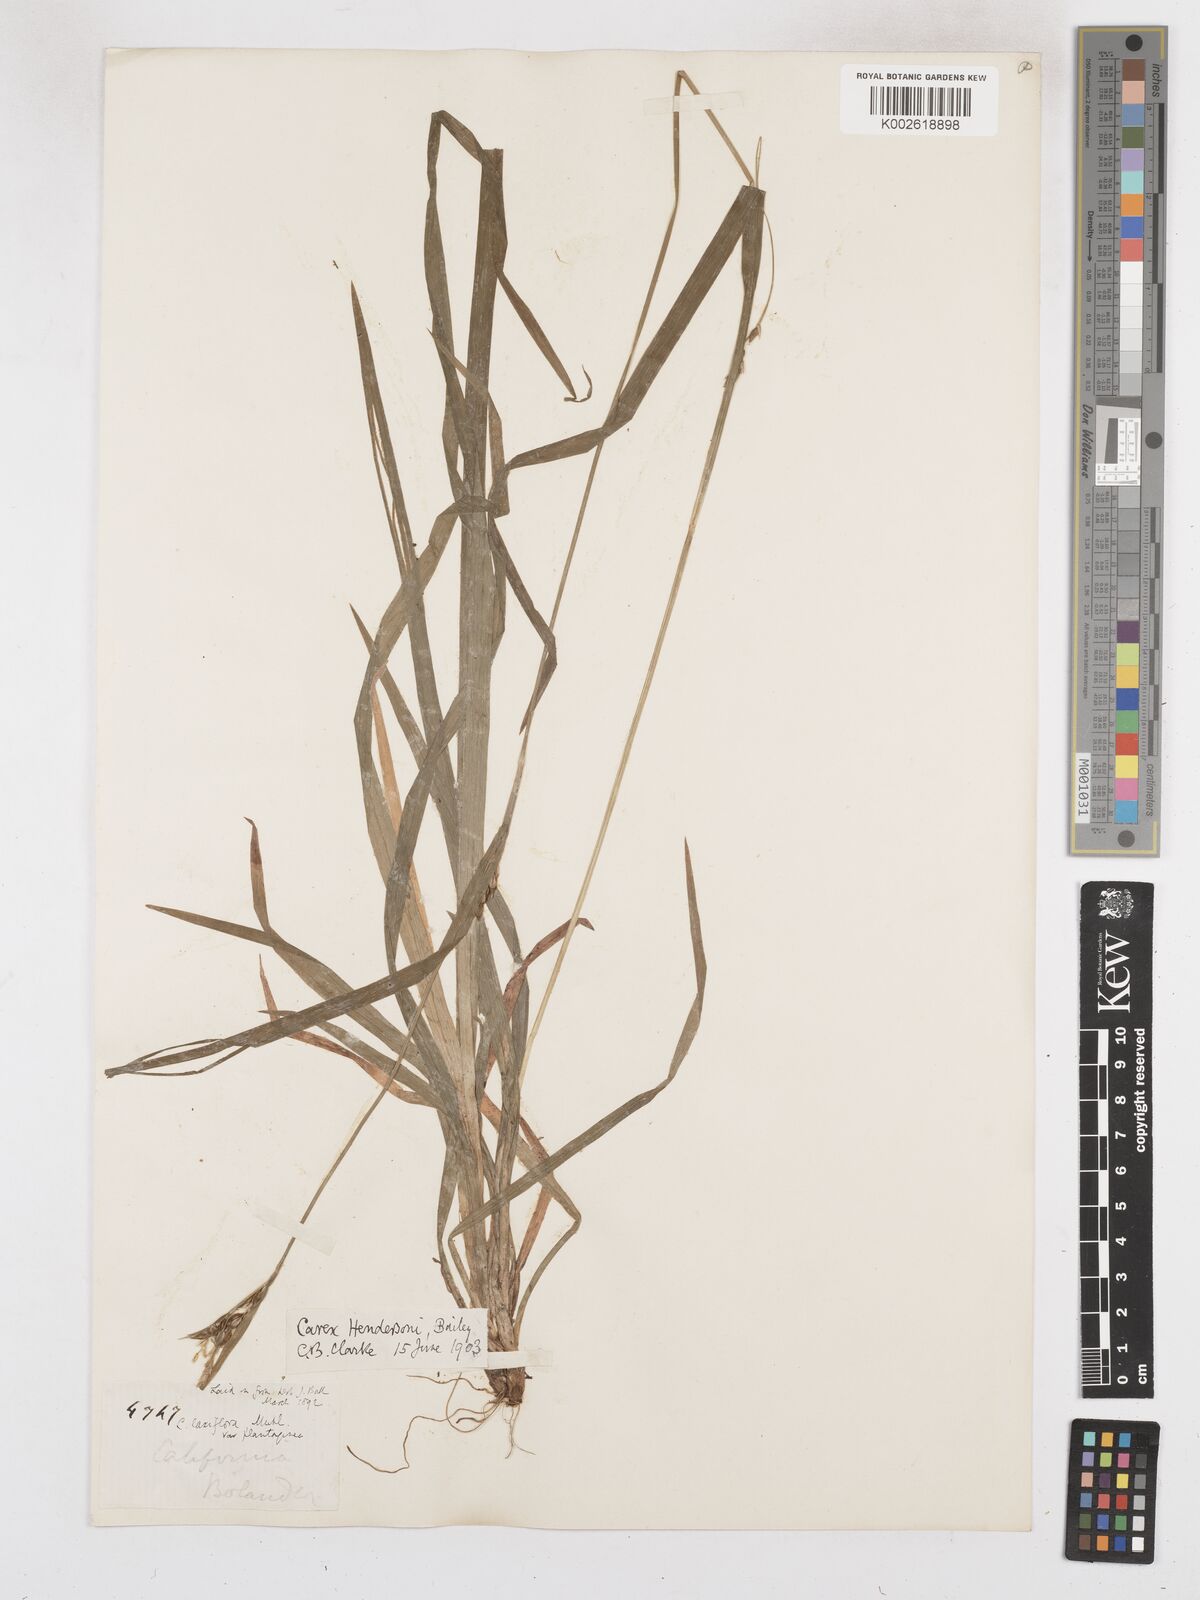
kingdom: Plantae
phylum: Tracheophyta
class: Liliopsida
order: Poales
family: Cyperaceae
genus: Carex
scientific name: Carex hendersonii
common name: Henderson's sedge
